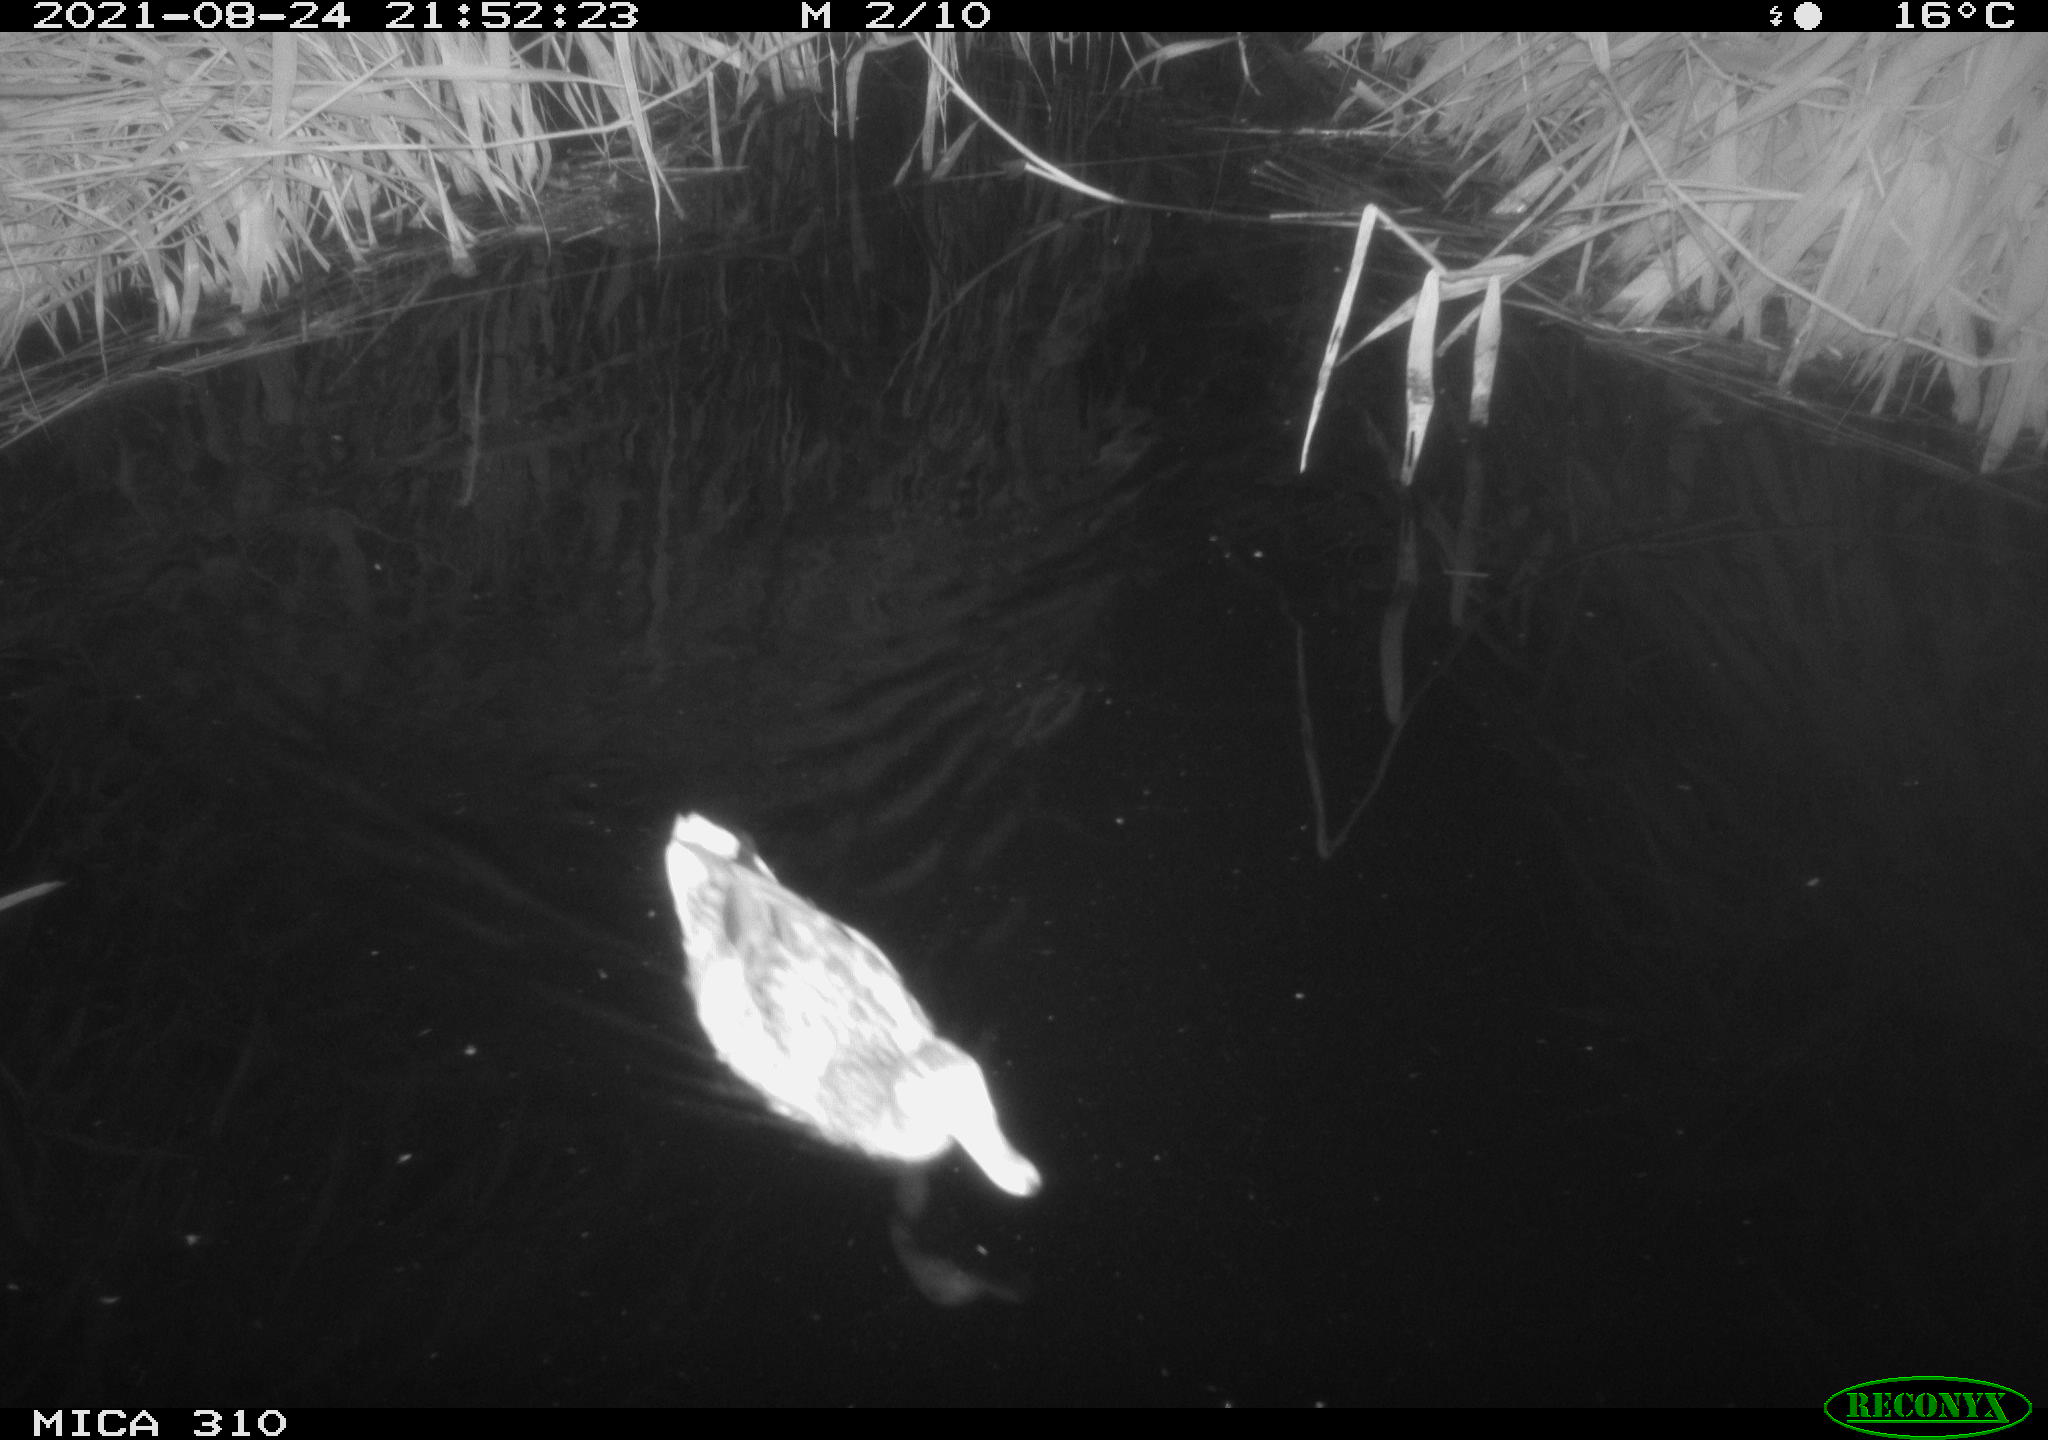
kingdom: Animalia
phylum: Chordata
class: Aves
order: Anseriformes
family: Anatidae
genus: Anas
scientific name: Anas platyrhynchos
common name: Mallard
